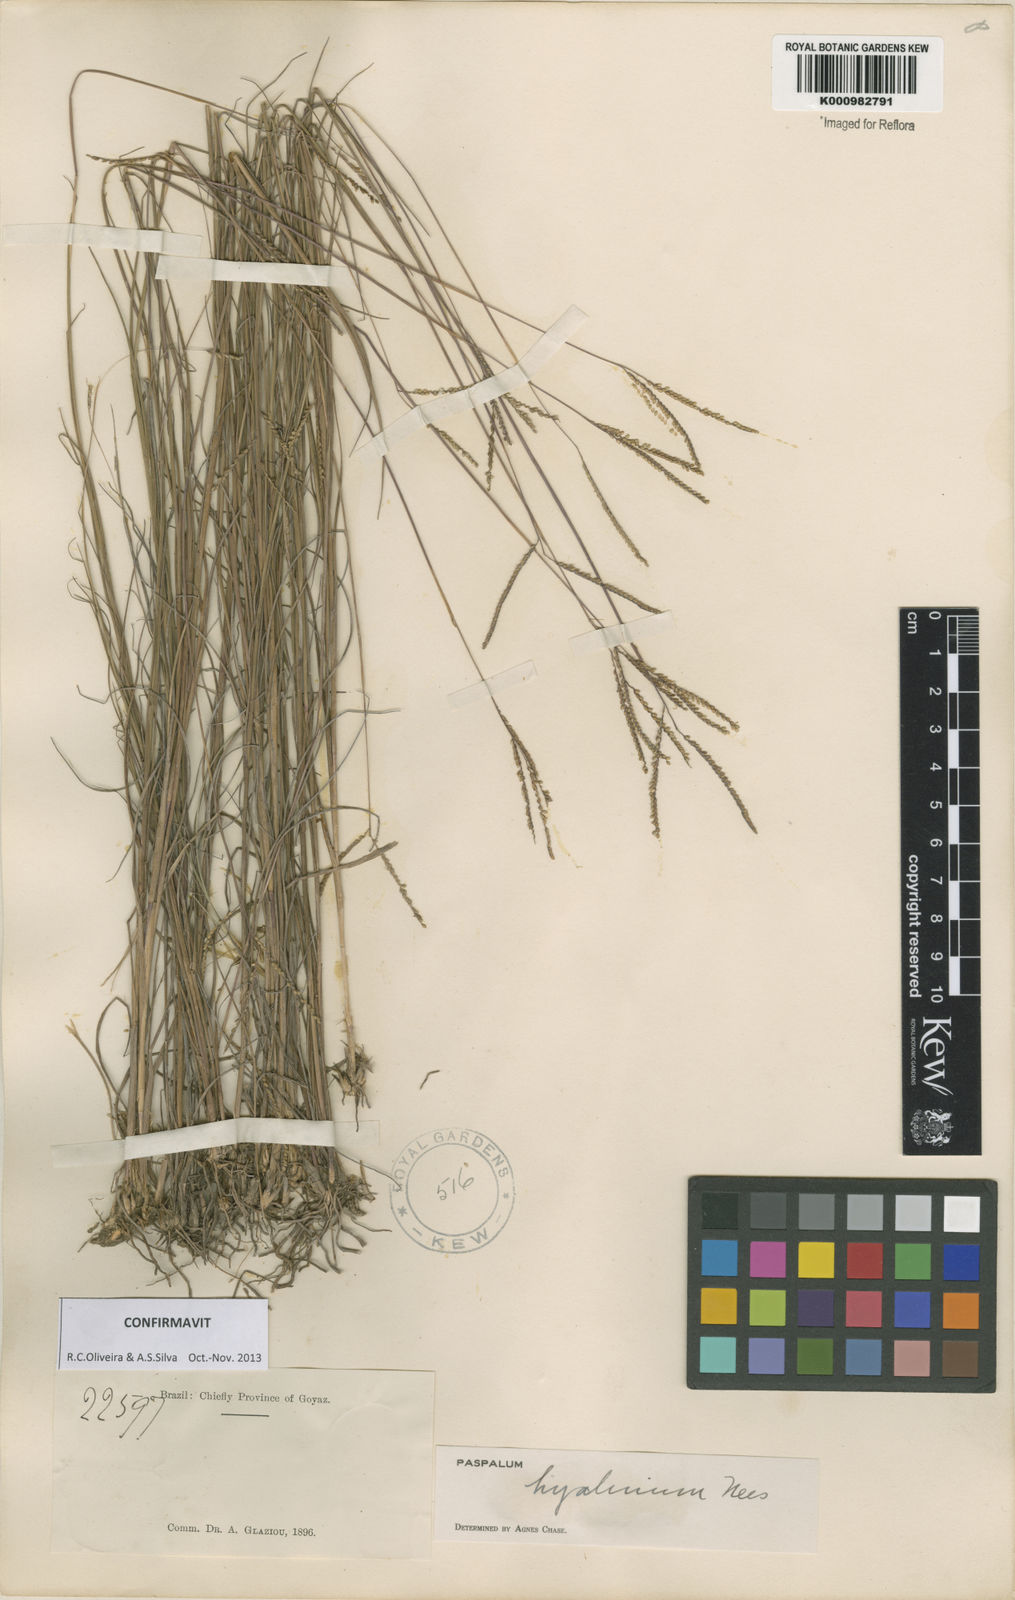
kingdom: Plantae
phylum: Tracheophyta
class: Liliopsida
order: Poales
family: Poaceae
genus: Paspalum
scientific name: Paspalum hyalinum
